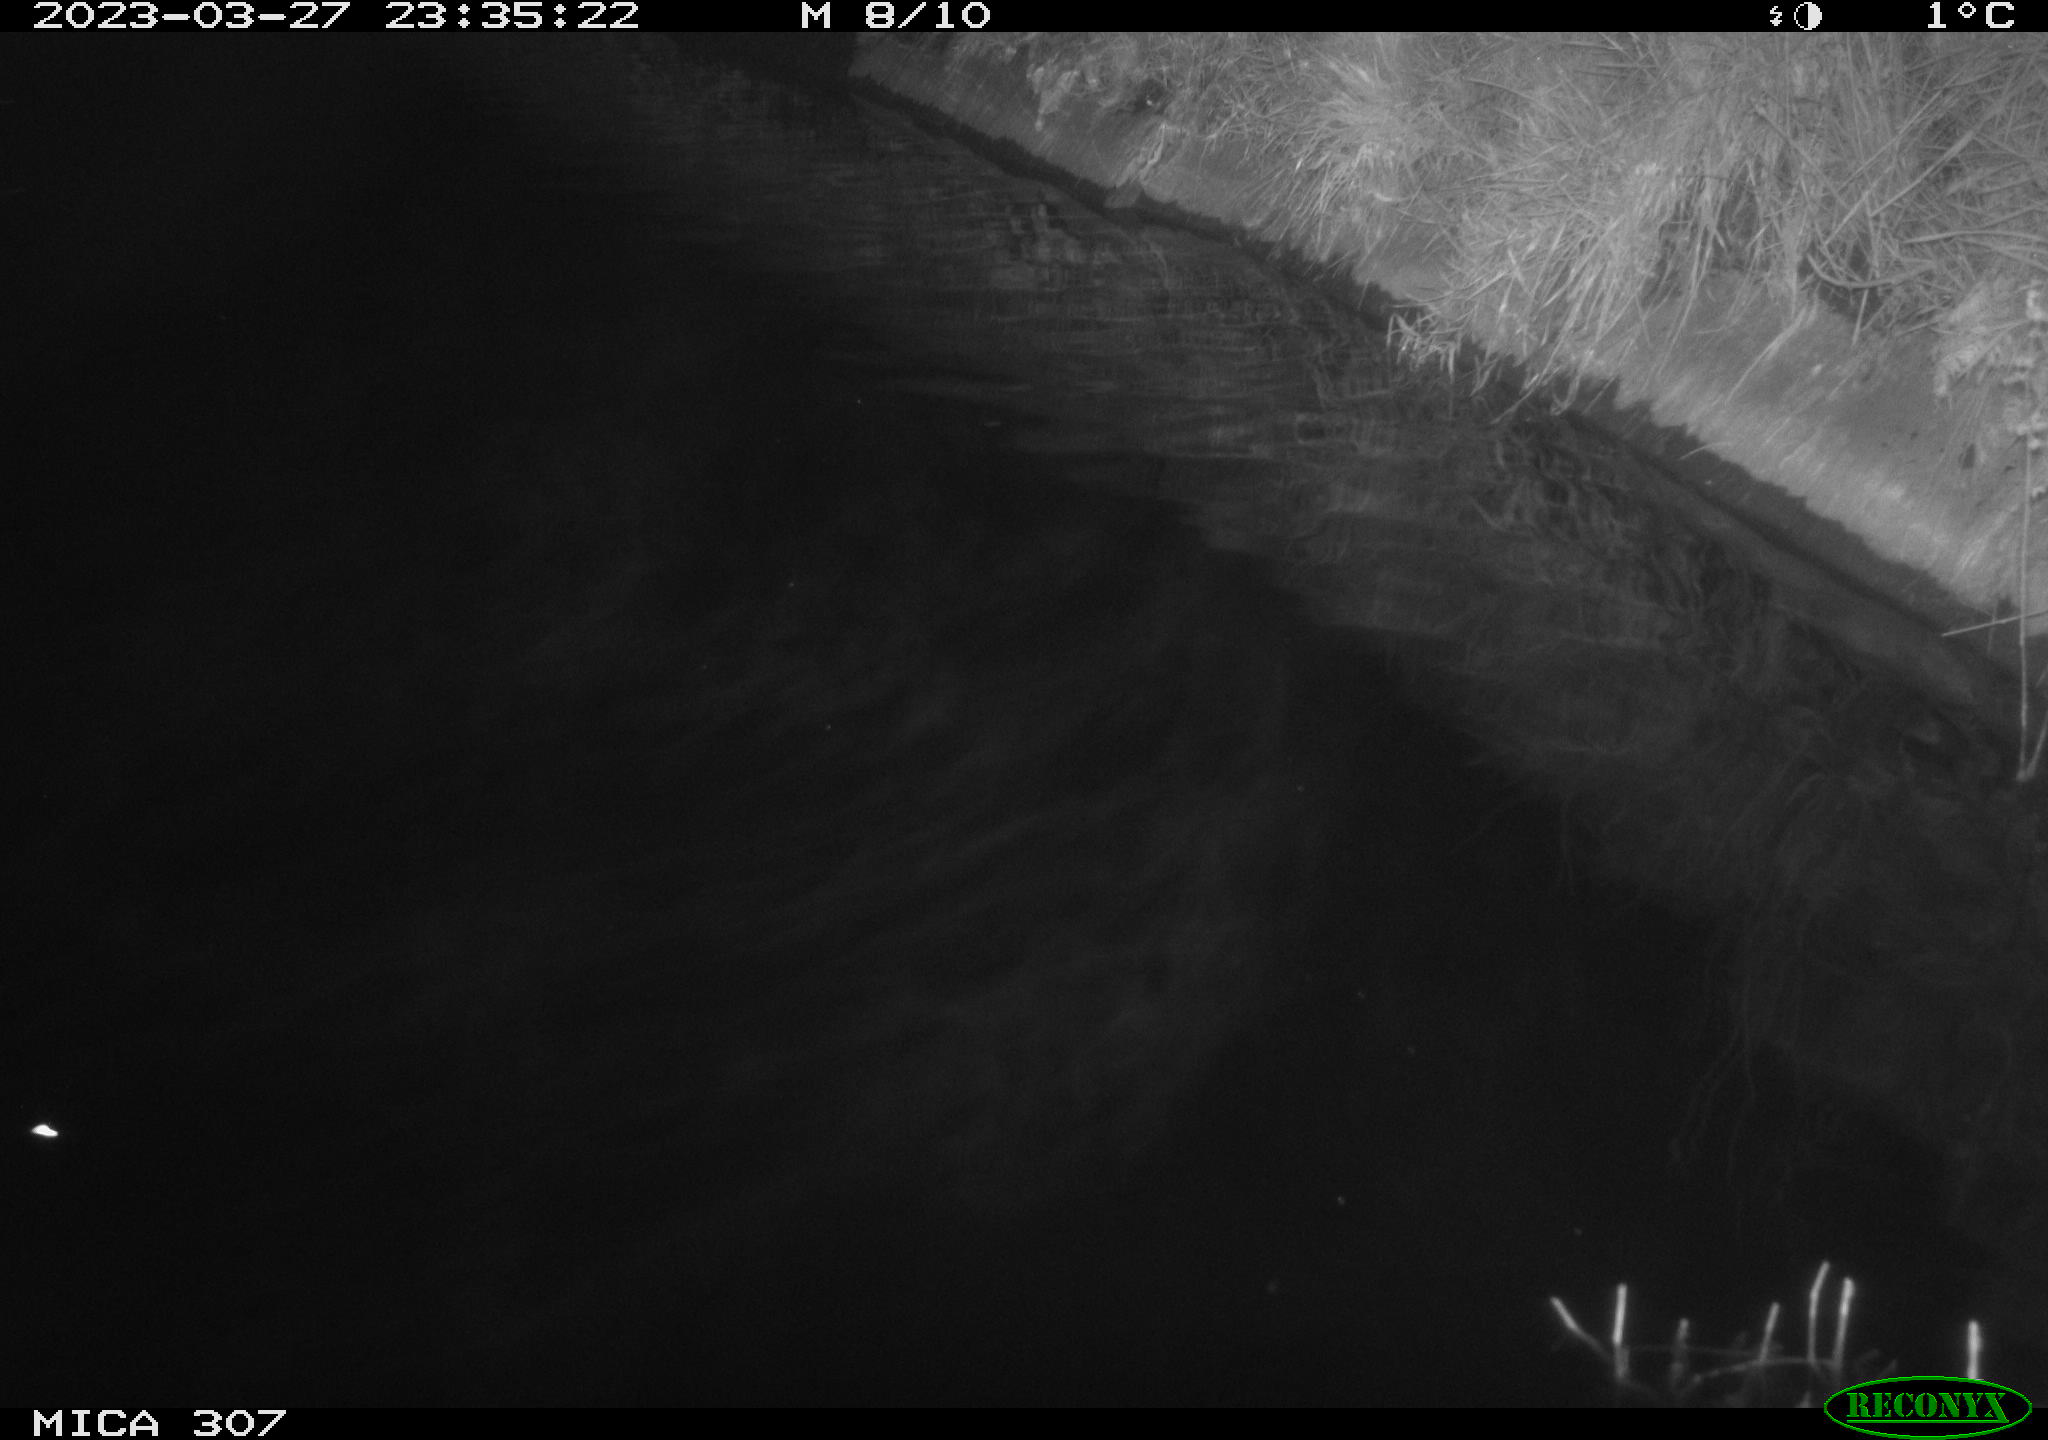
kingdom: Animalia
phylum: Chordata
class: Aves
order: Anseriformes
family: Anatidae
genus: Anas
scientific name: Anas
